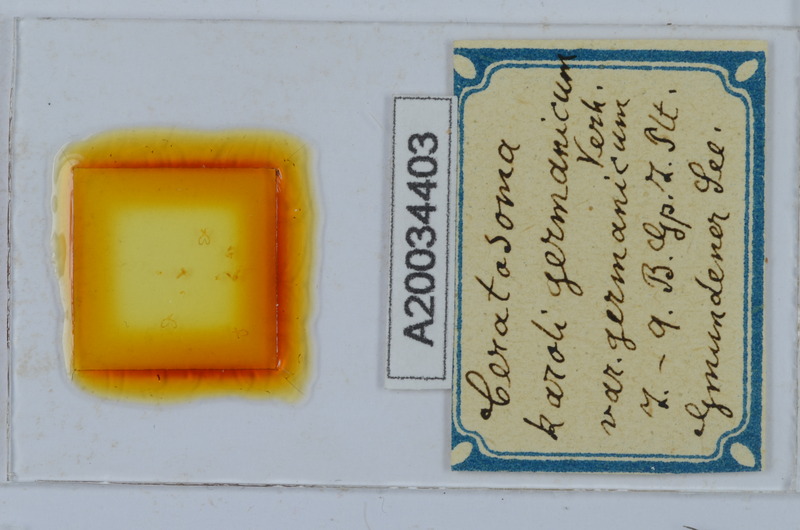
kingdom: Animalia
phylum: Arthropoda
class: Diplopoda
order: Chordeumatida
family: Craspedosomatidae
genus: Ochogona
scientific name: Ochogona caroli
